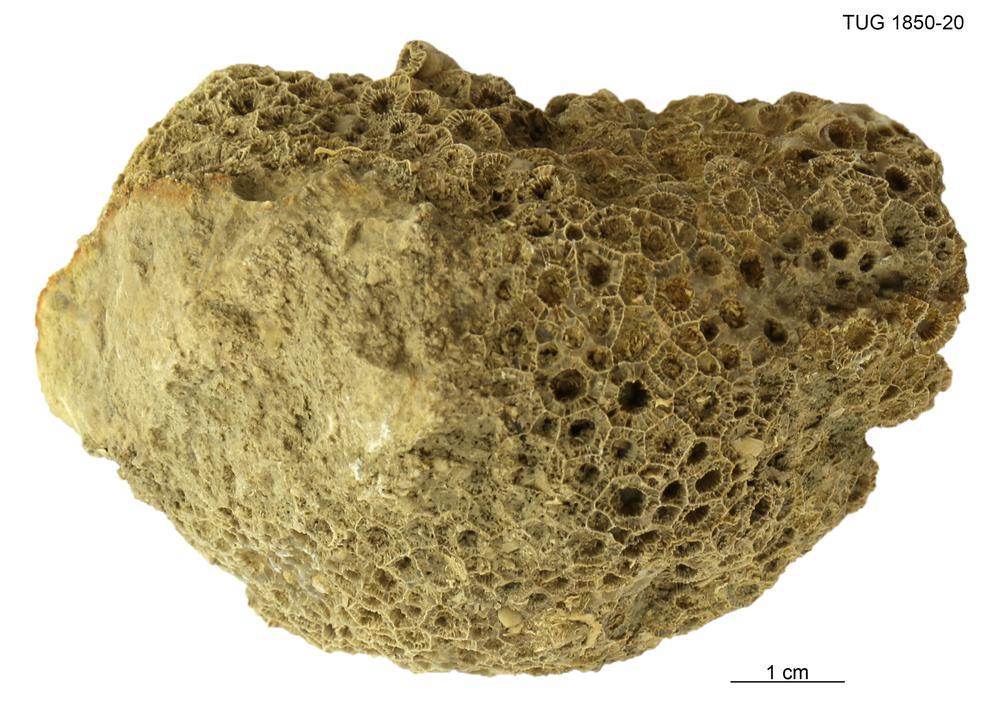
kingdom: Animalia
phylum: Cnidaria
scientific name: Cnidaria
